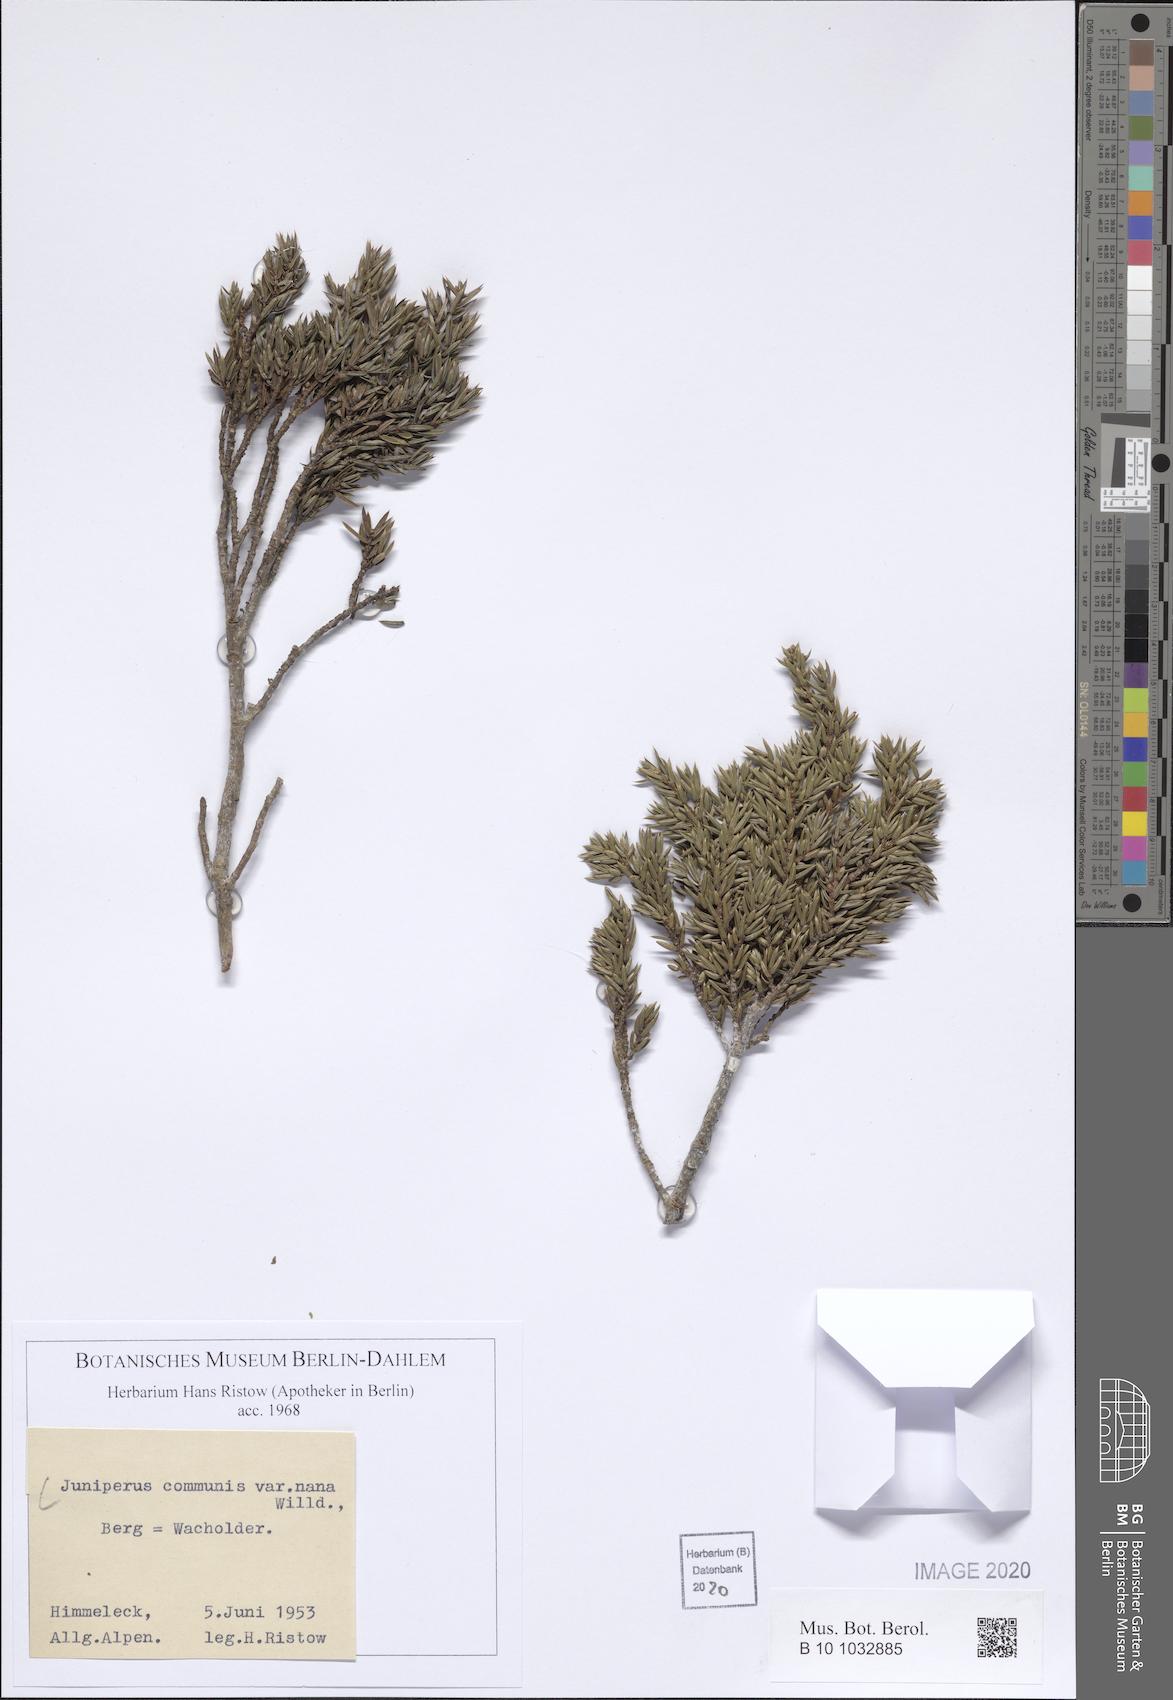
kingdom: Plantae
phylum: Tracheophyta
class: Pinopsida
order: Pinales
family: Cupressaceae
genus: Juniperus
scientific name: Juniperus communis
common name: Common juniper
